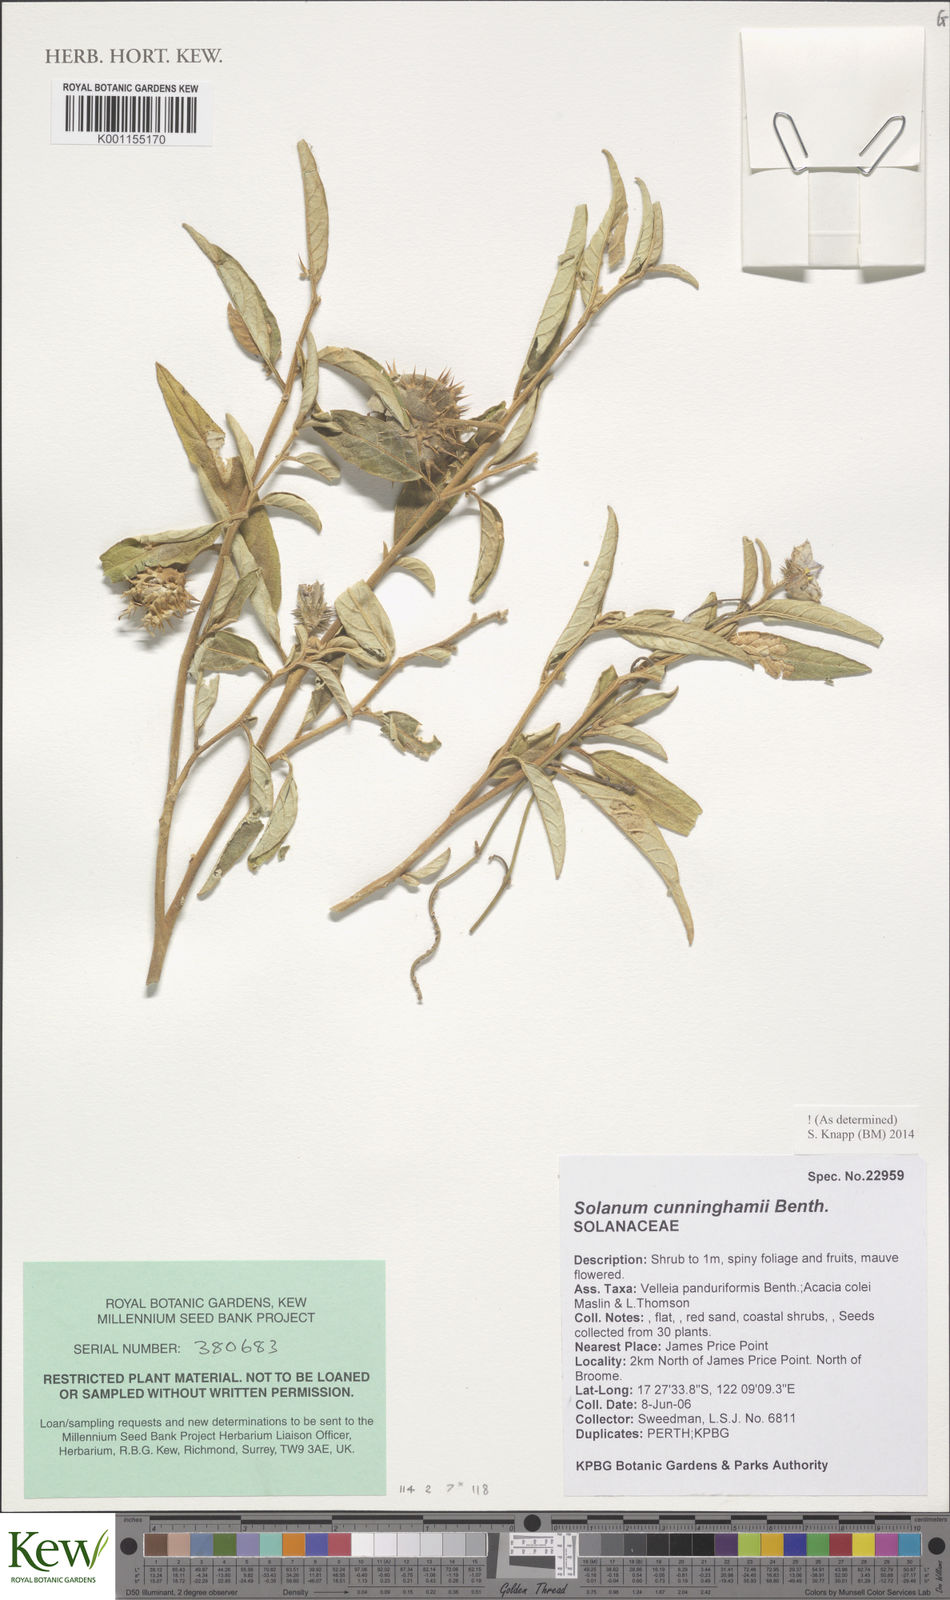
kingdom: Plantae
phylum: Tracheophyta
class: Magnoliopsida
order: Solanales
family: Solanaceae
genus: Solanum
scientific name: Solanum cunninghamii
